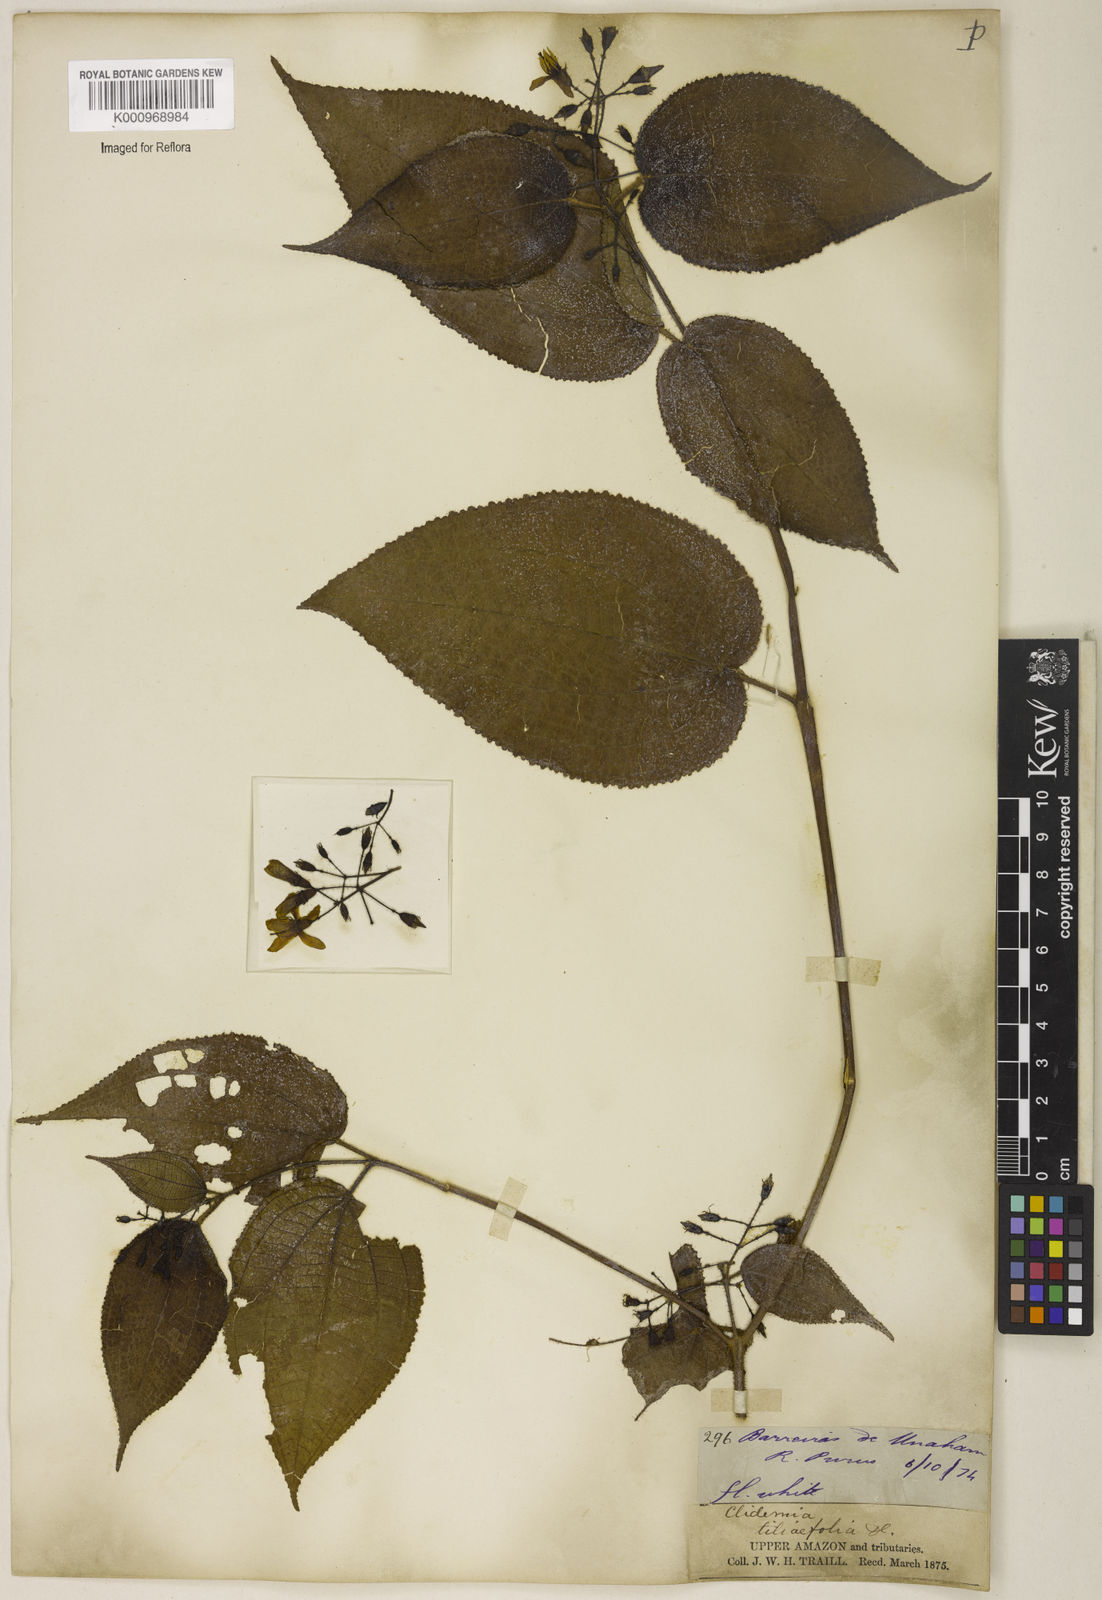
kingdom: Plantae
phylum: Tracheophyta
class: Magnoliopsida
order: Myrtales
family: Melastomataceae
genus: Miconia
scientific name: Miconia crenata
